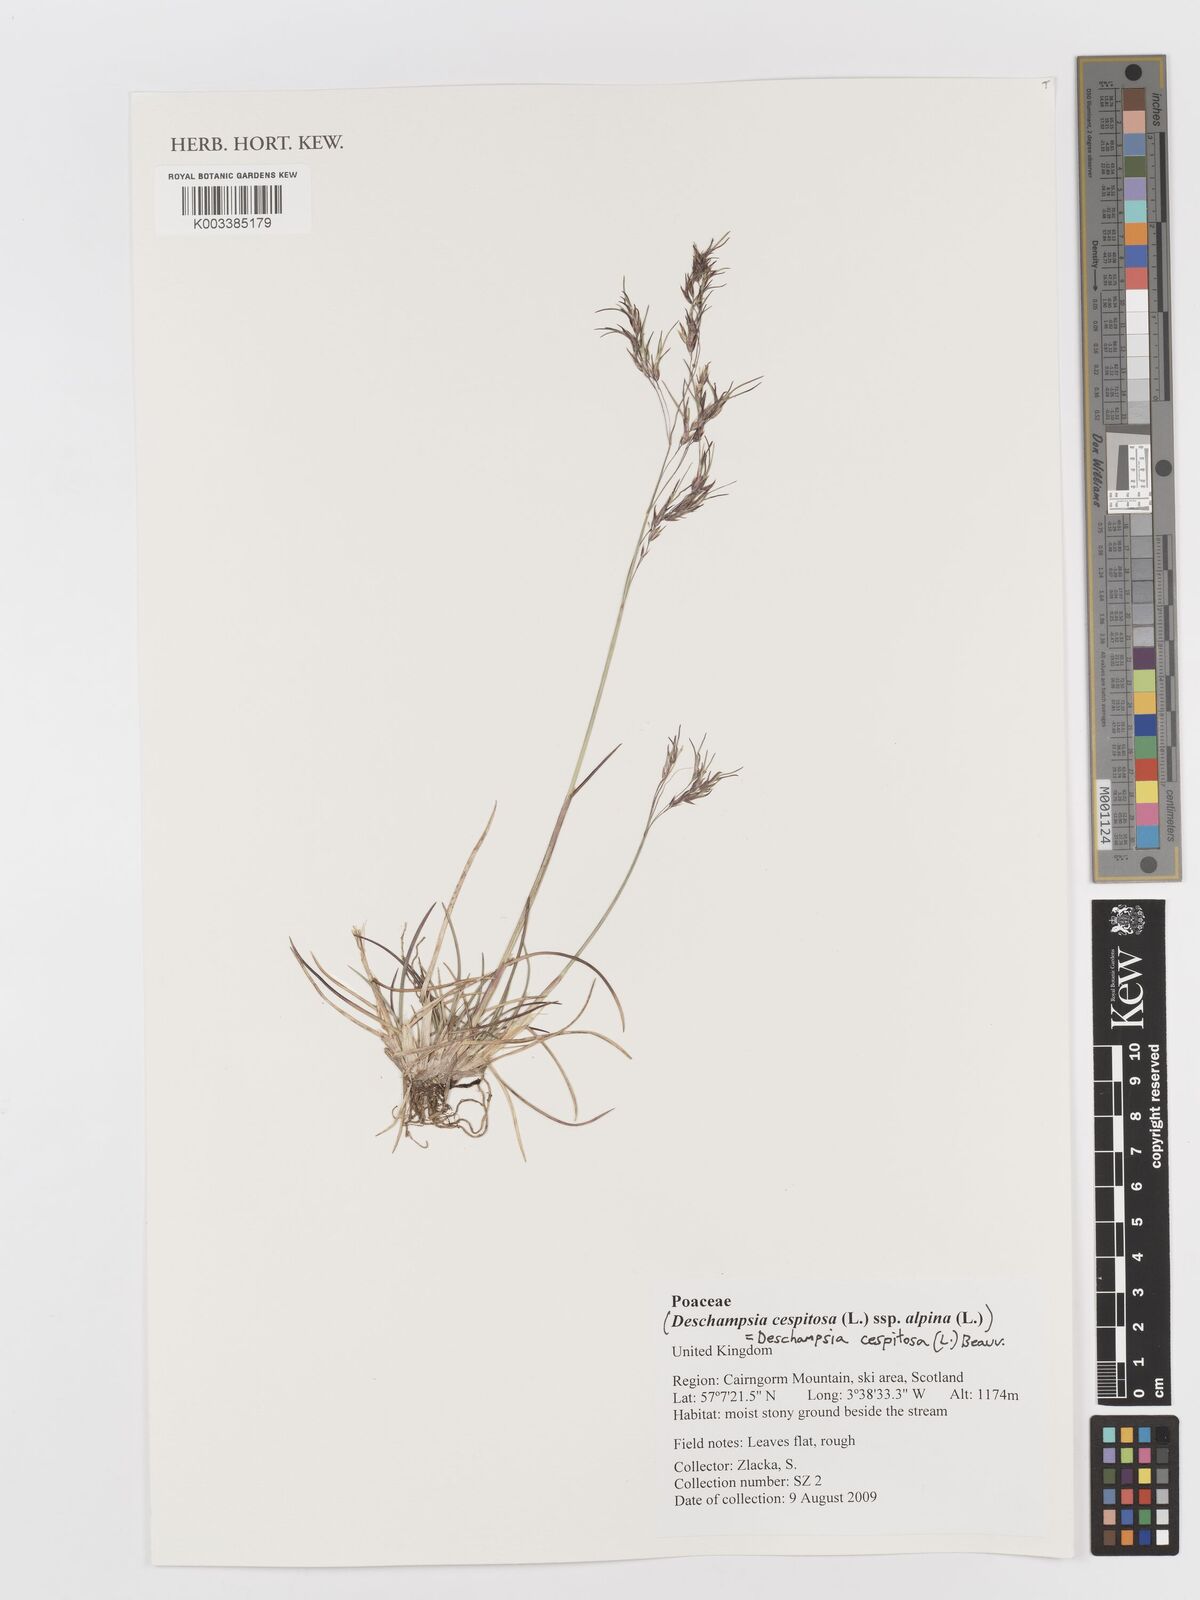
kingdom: Plantae
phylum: Tracheophyta
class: Liliopsida
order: Poales
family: Poaceae
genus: Deschampsia
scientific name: Deschampsia cespitosa
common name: Tufted hair-grass
